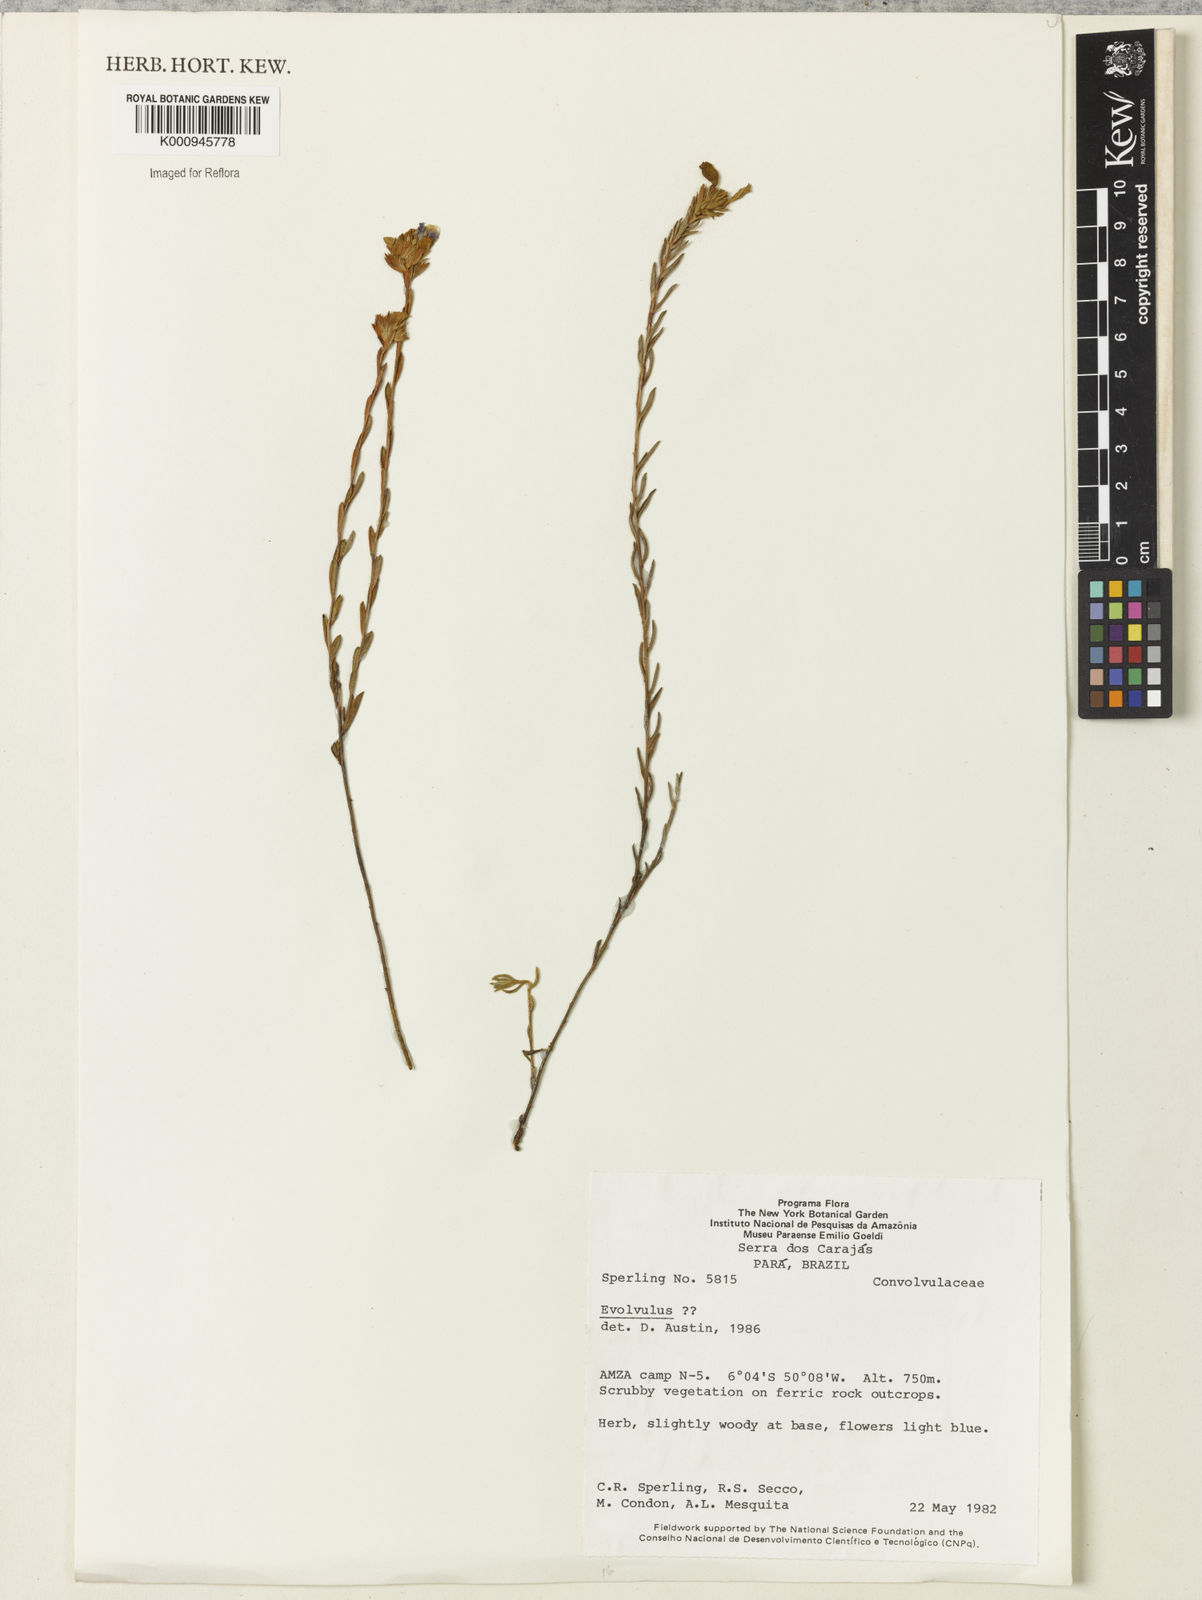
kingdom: Plantae
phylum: Tracheophyta
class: Magnoliopsida
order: Solanales
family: Convolvulaceae
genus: Evolvulus
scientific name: Evolvulus
